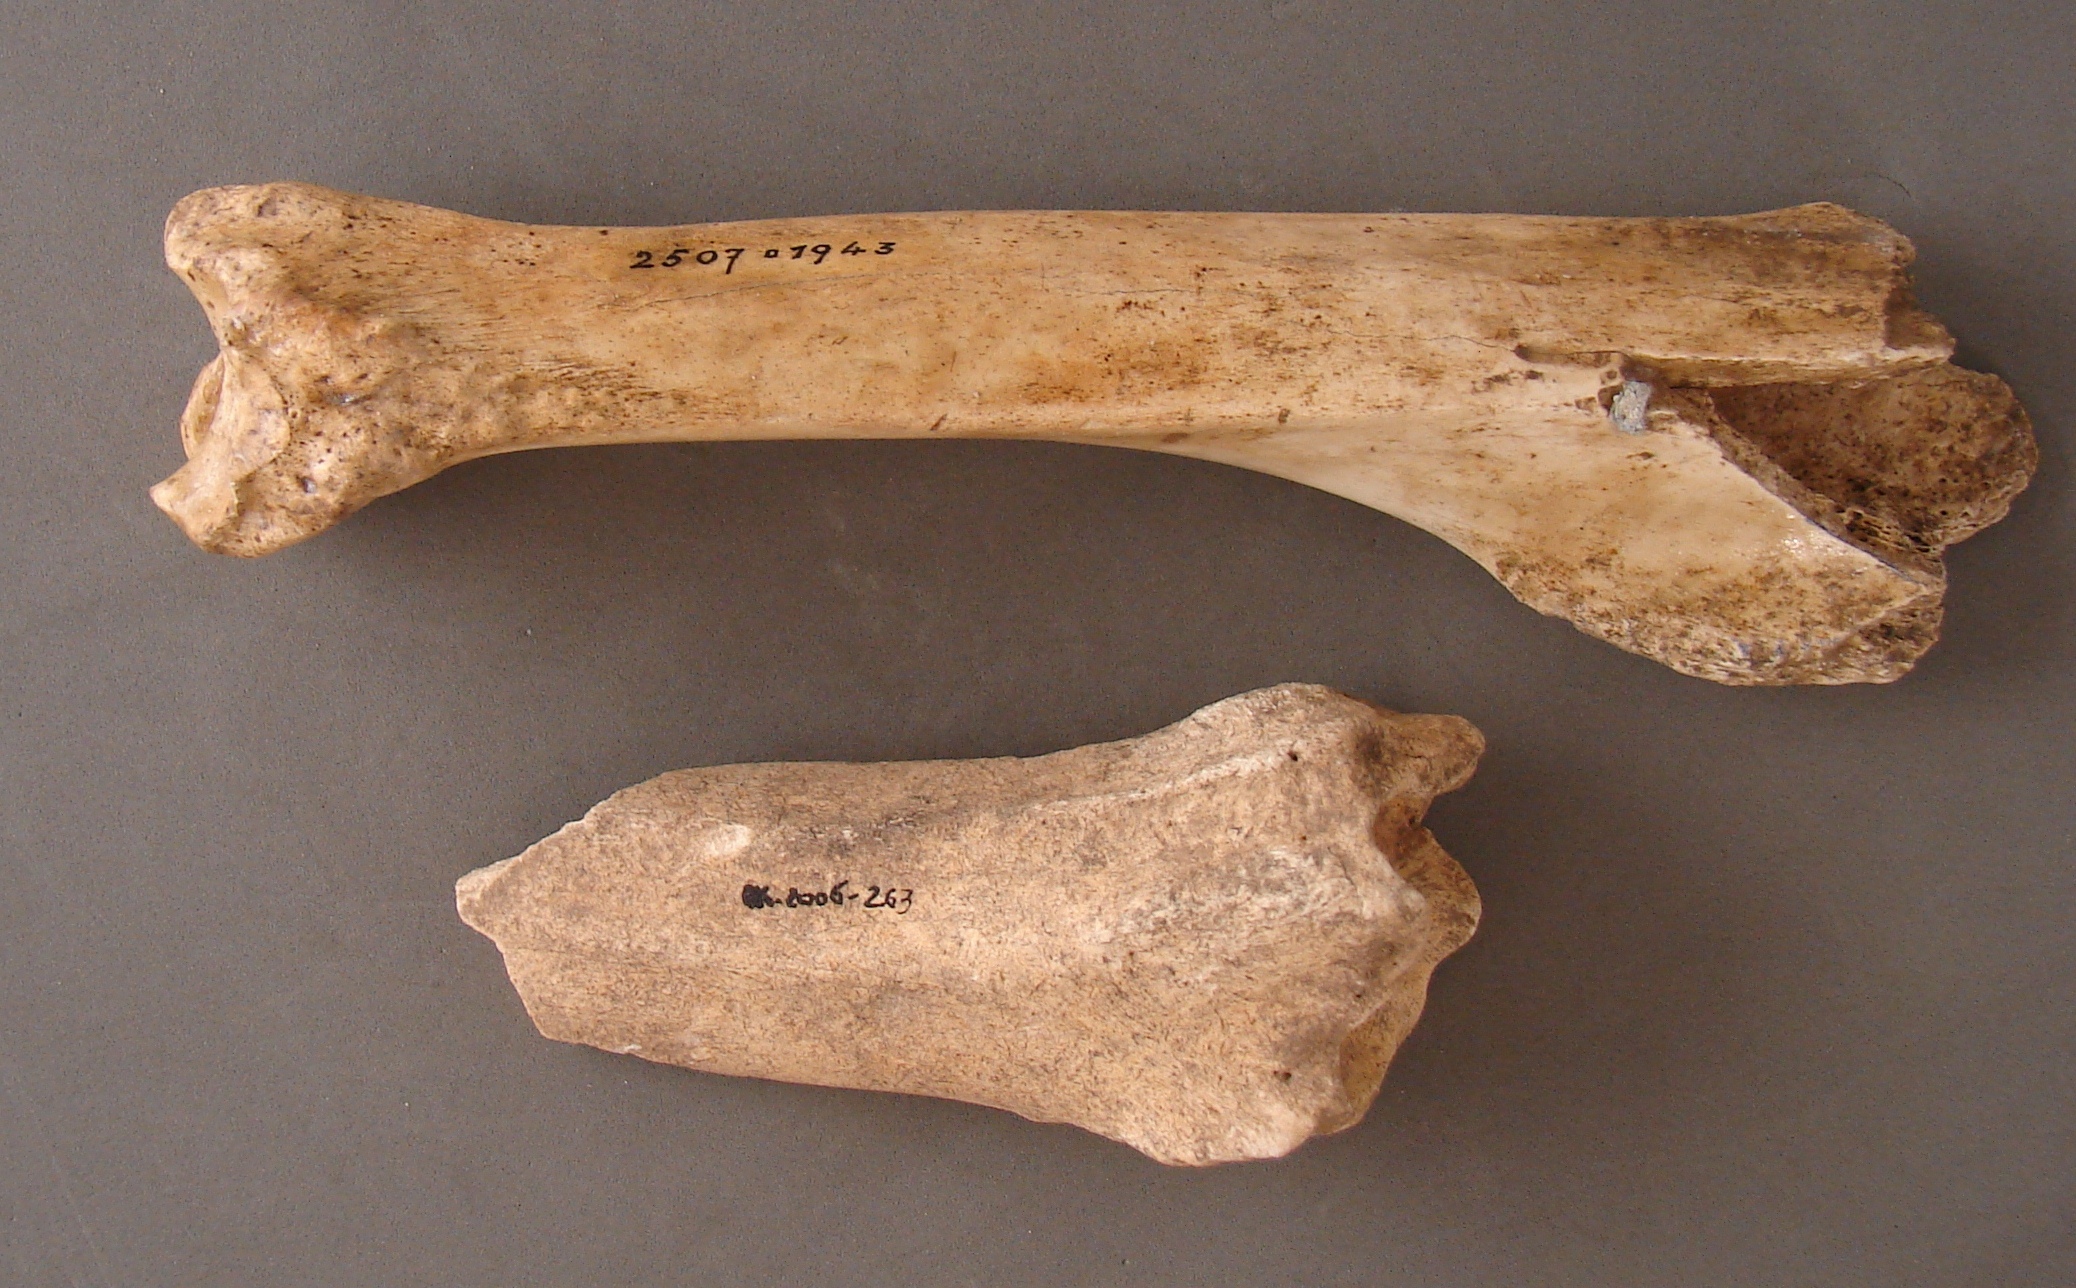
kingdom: Animalia
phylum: Chordata
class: Mammalia
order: Artiodactyla
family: Suidae
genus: Sus
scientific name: Sus scrofa
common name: Wild boar
